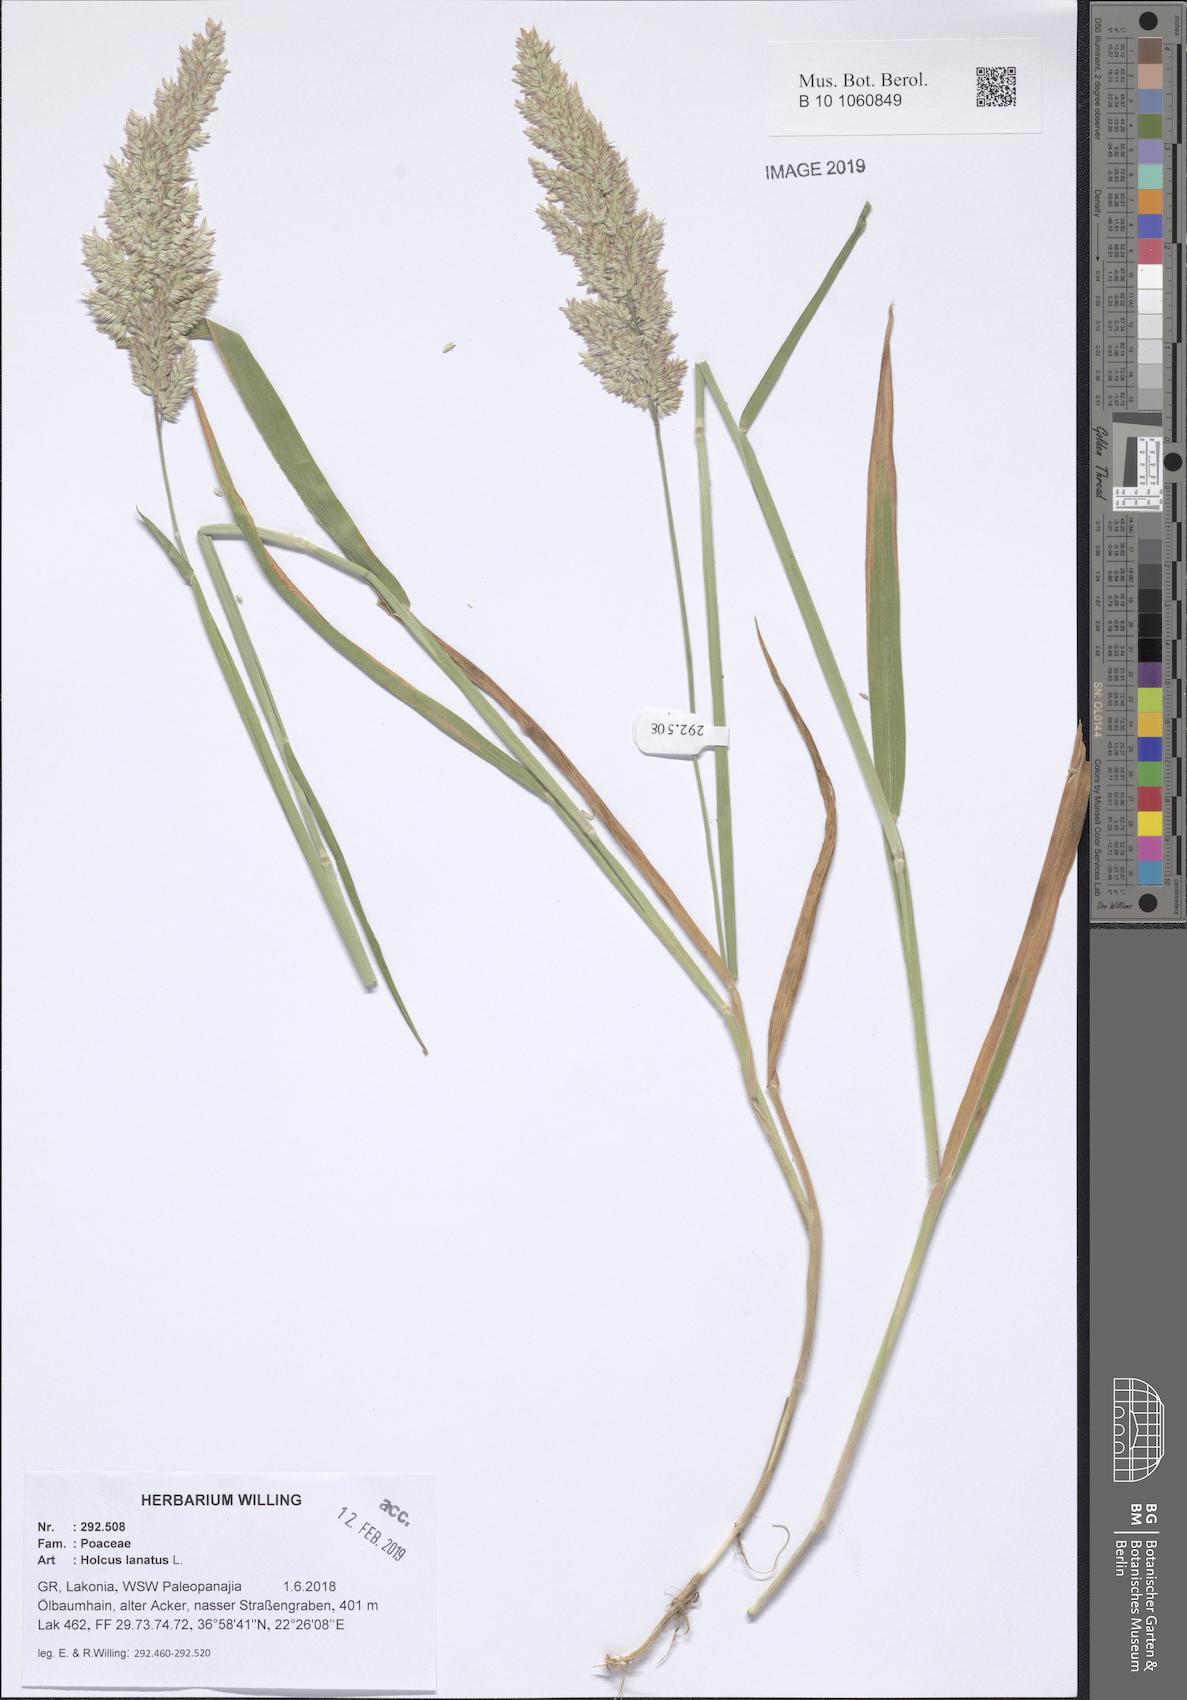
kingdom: Plantae
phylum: Tracheophyta
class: Liliopsida
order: Poales
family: Poaceae
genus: Holcus
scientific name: Holcus lanatus
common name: Yorkshire-fog
